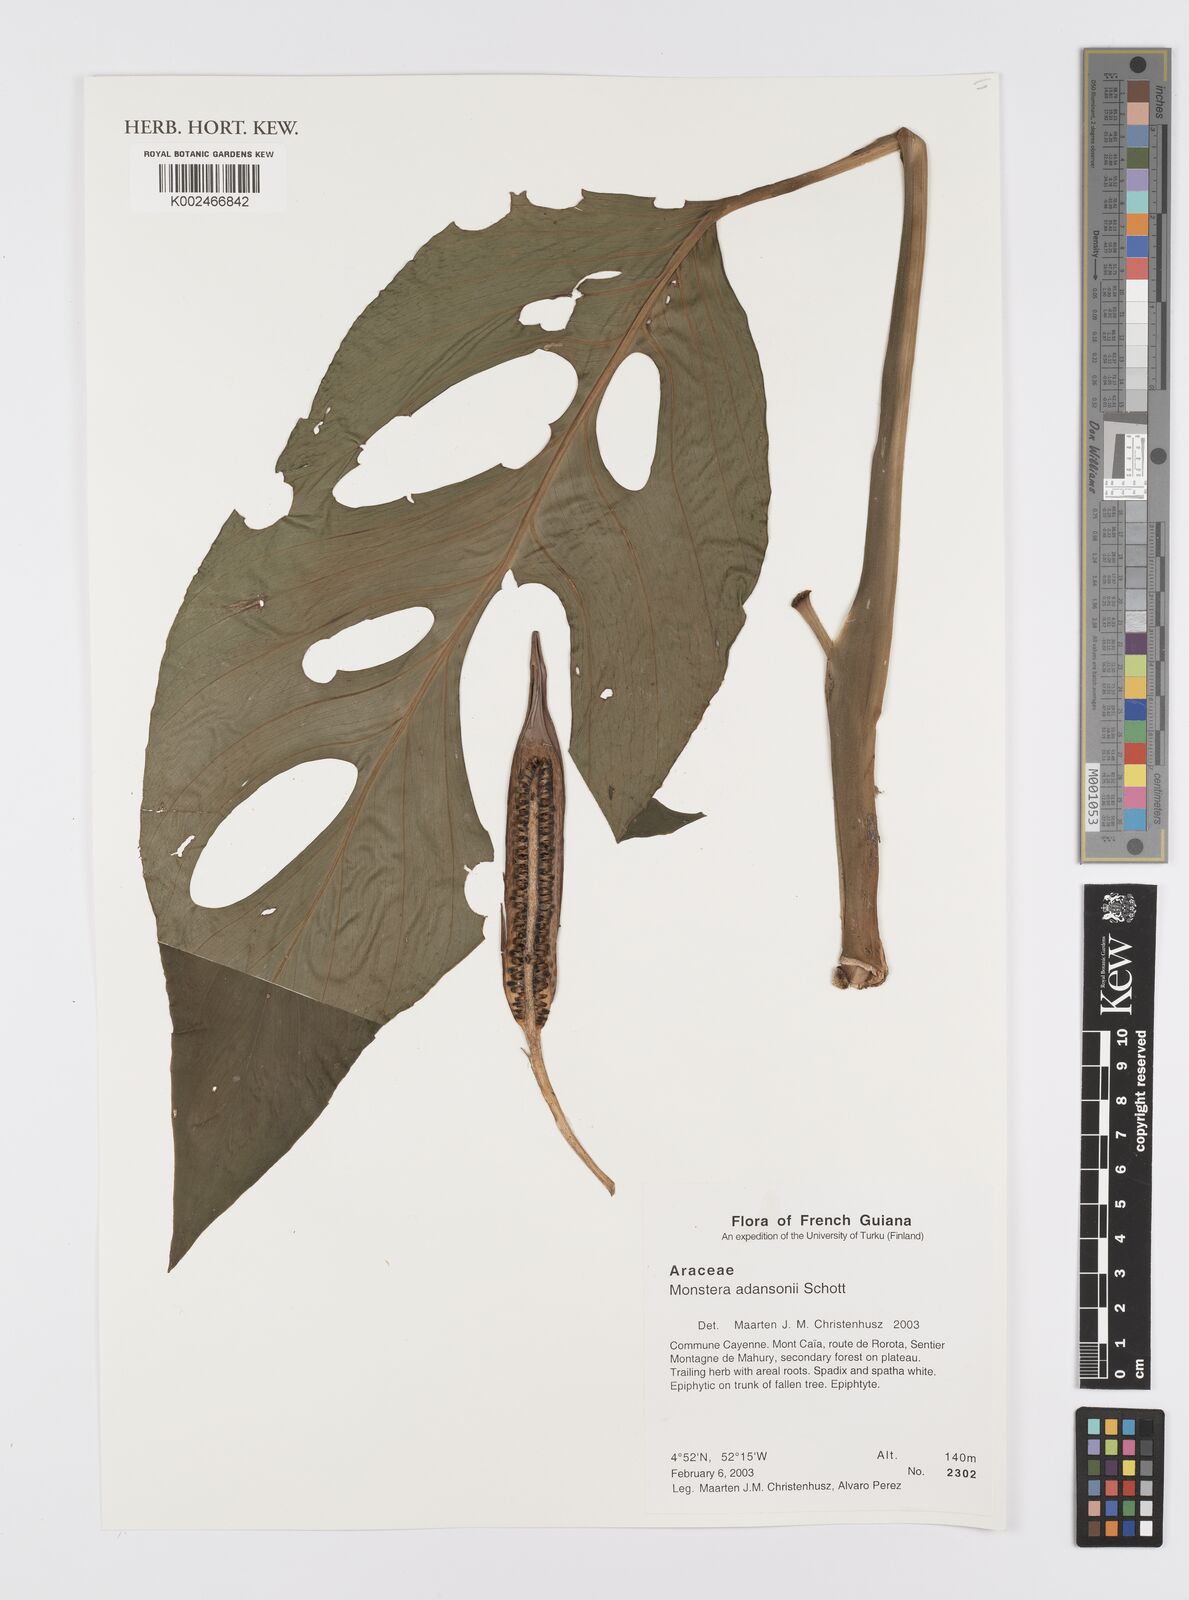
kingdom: Plantae
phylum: Tracheophyta
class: Liliopsida
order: Alismatales
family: Araceae
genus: Monstera
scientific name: Monstera adansonii
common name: Tarovine
